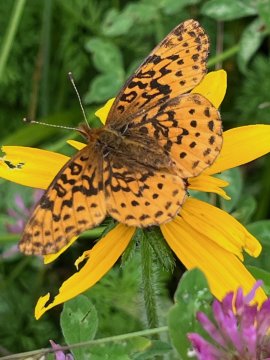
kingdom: Animalia
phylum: Arthropoda
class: Insecta
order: Lepidoptera
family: Nymphalidae
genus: Speyeria
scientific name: Speyeria cybele
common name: Great Spangled Fritillary
